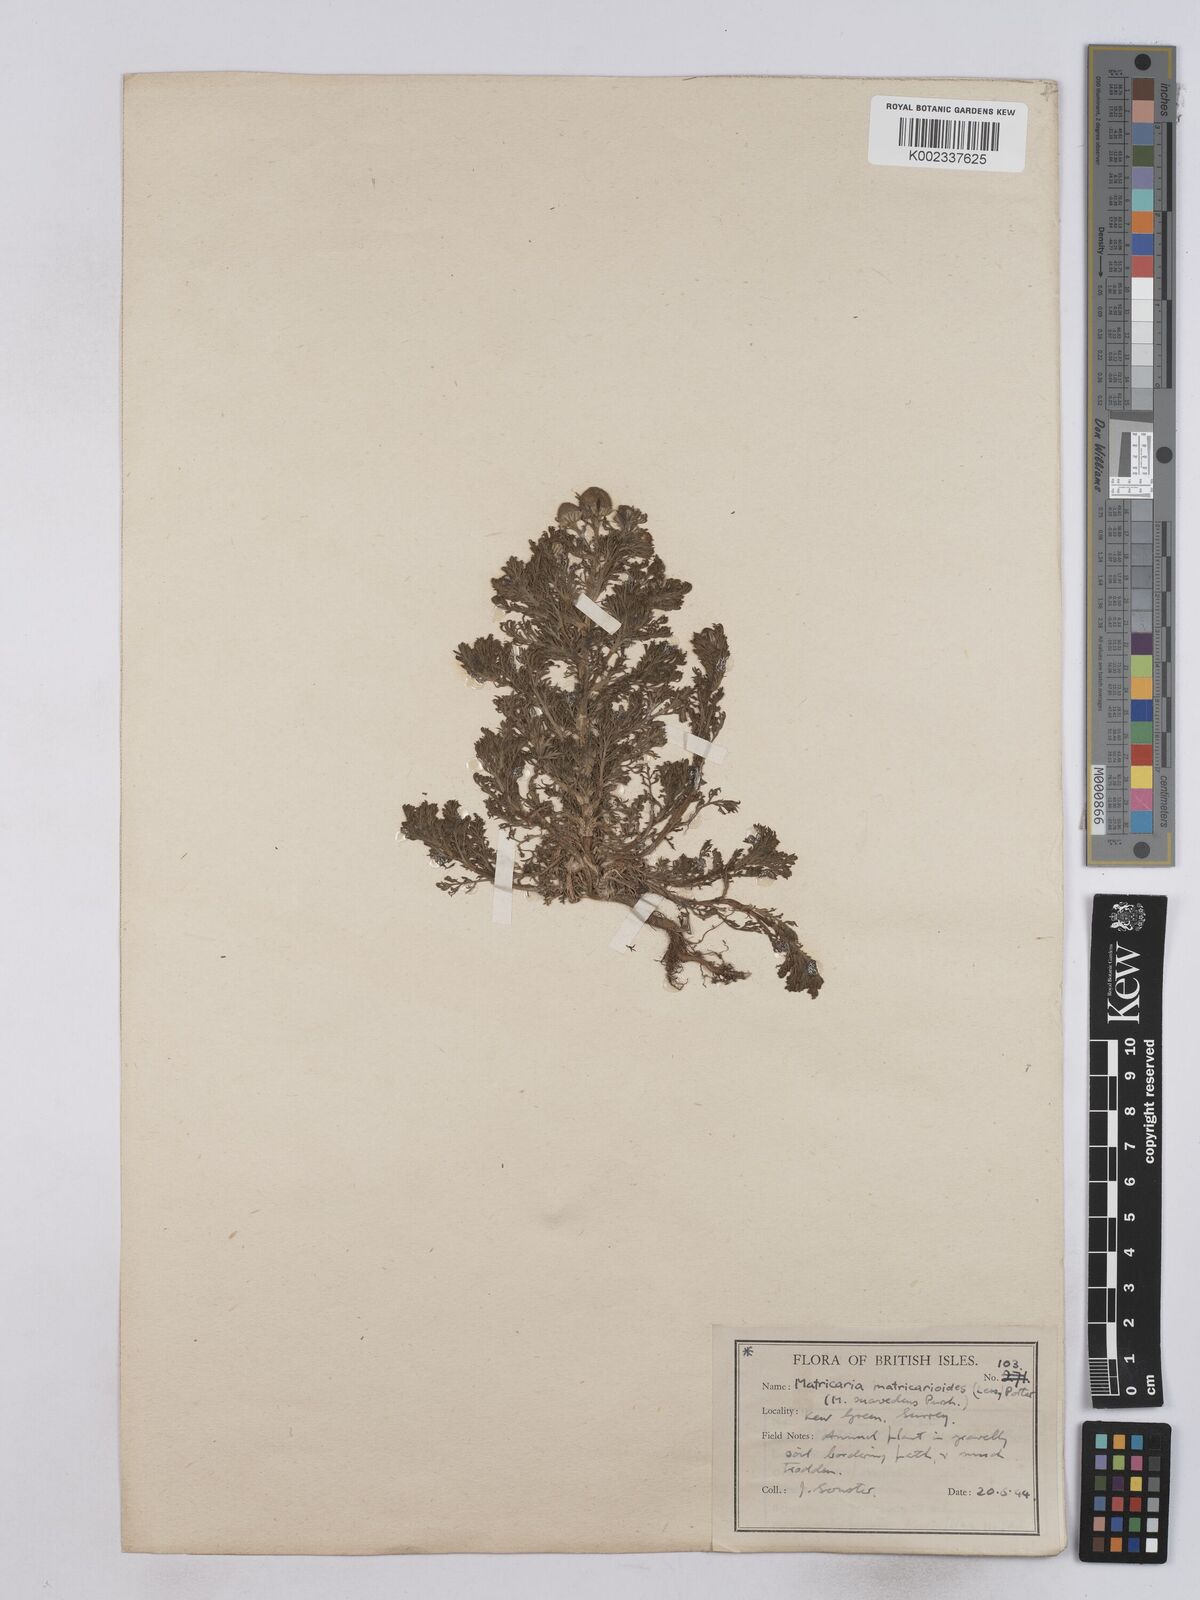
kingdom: Plantae
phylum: Tracheophyta
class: Magnoliopsida
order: Asterales
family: Asteraceae
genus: Matricaria
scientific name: Matricaria discoidea
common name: Disc mayweed
